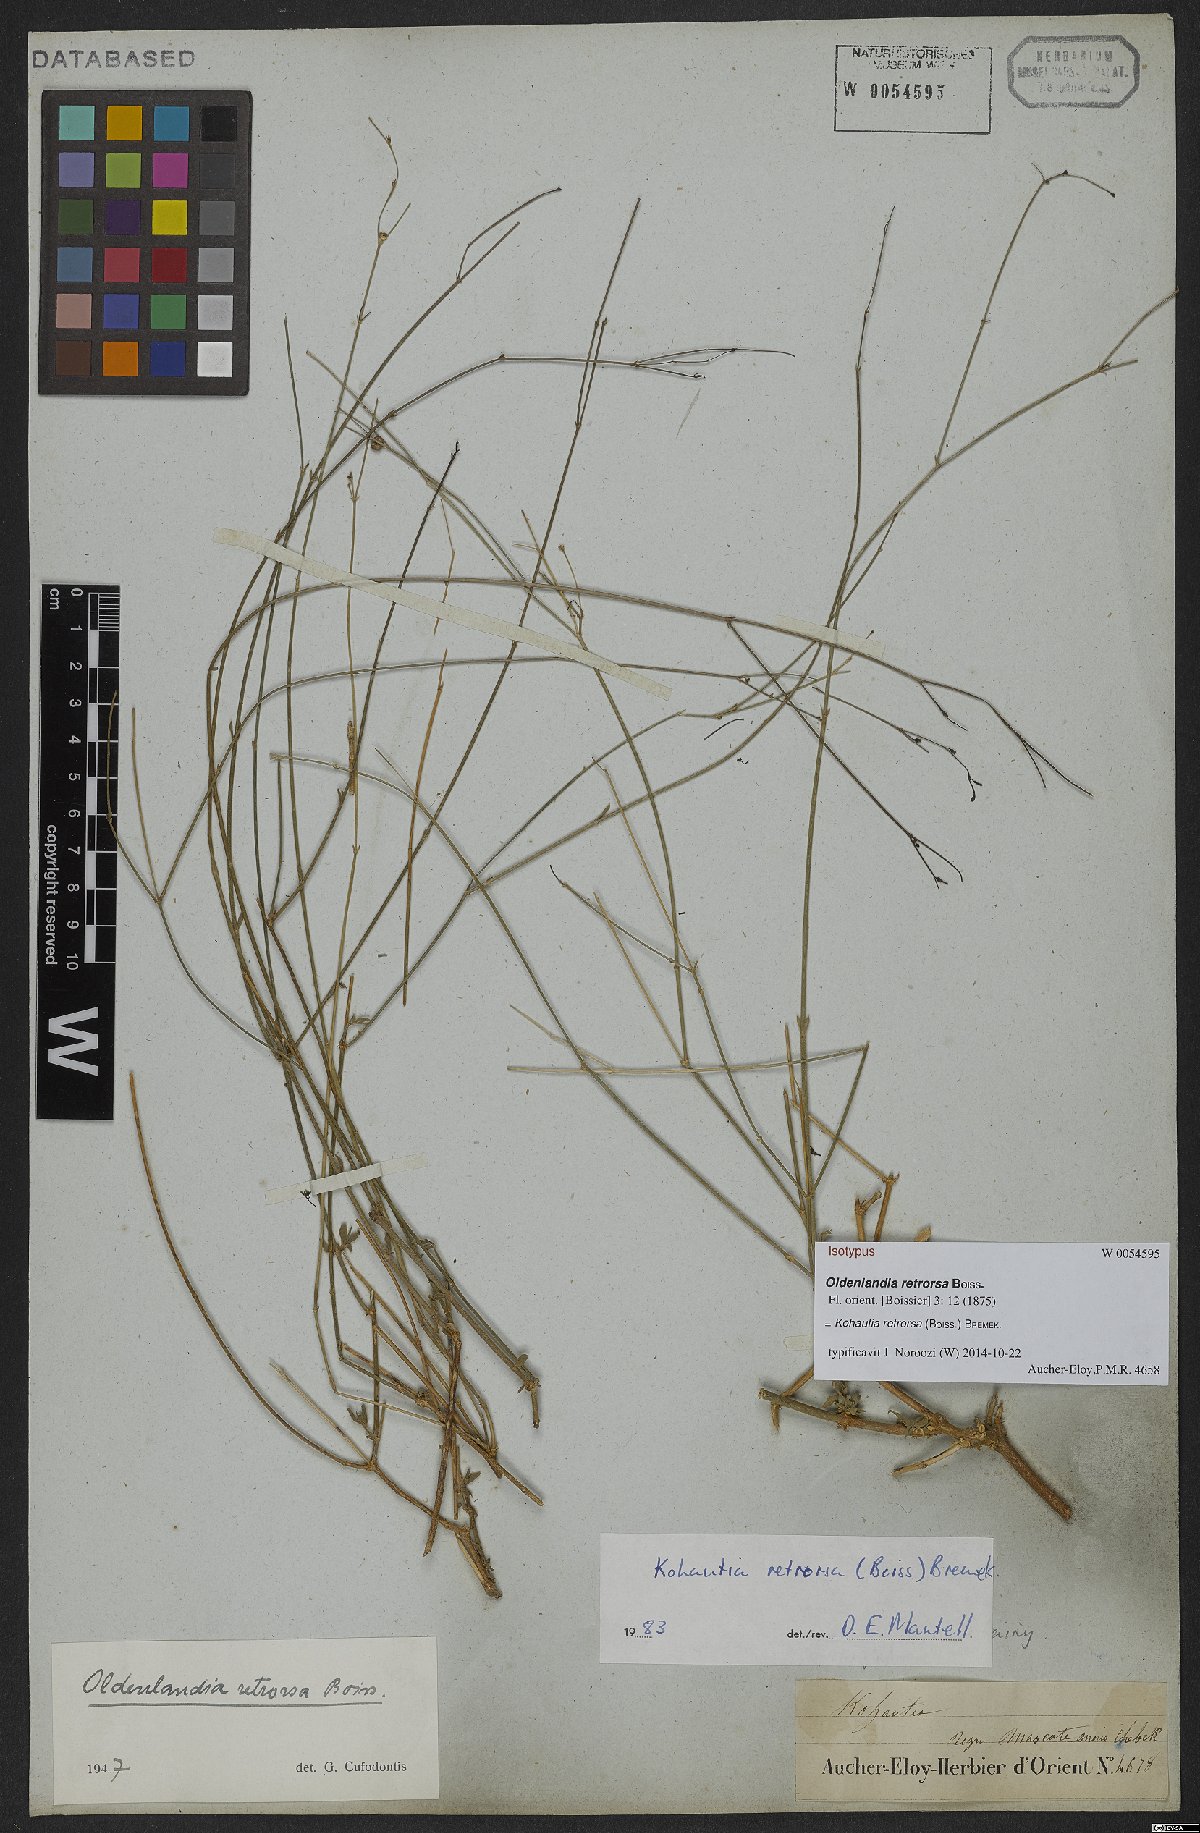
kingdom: Plantae
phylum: Tracheophyta
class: Magnoliopsida
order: Gentianales
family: Rubiaceae
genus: Kohautia
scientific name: Kohautia retrorsa
